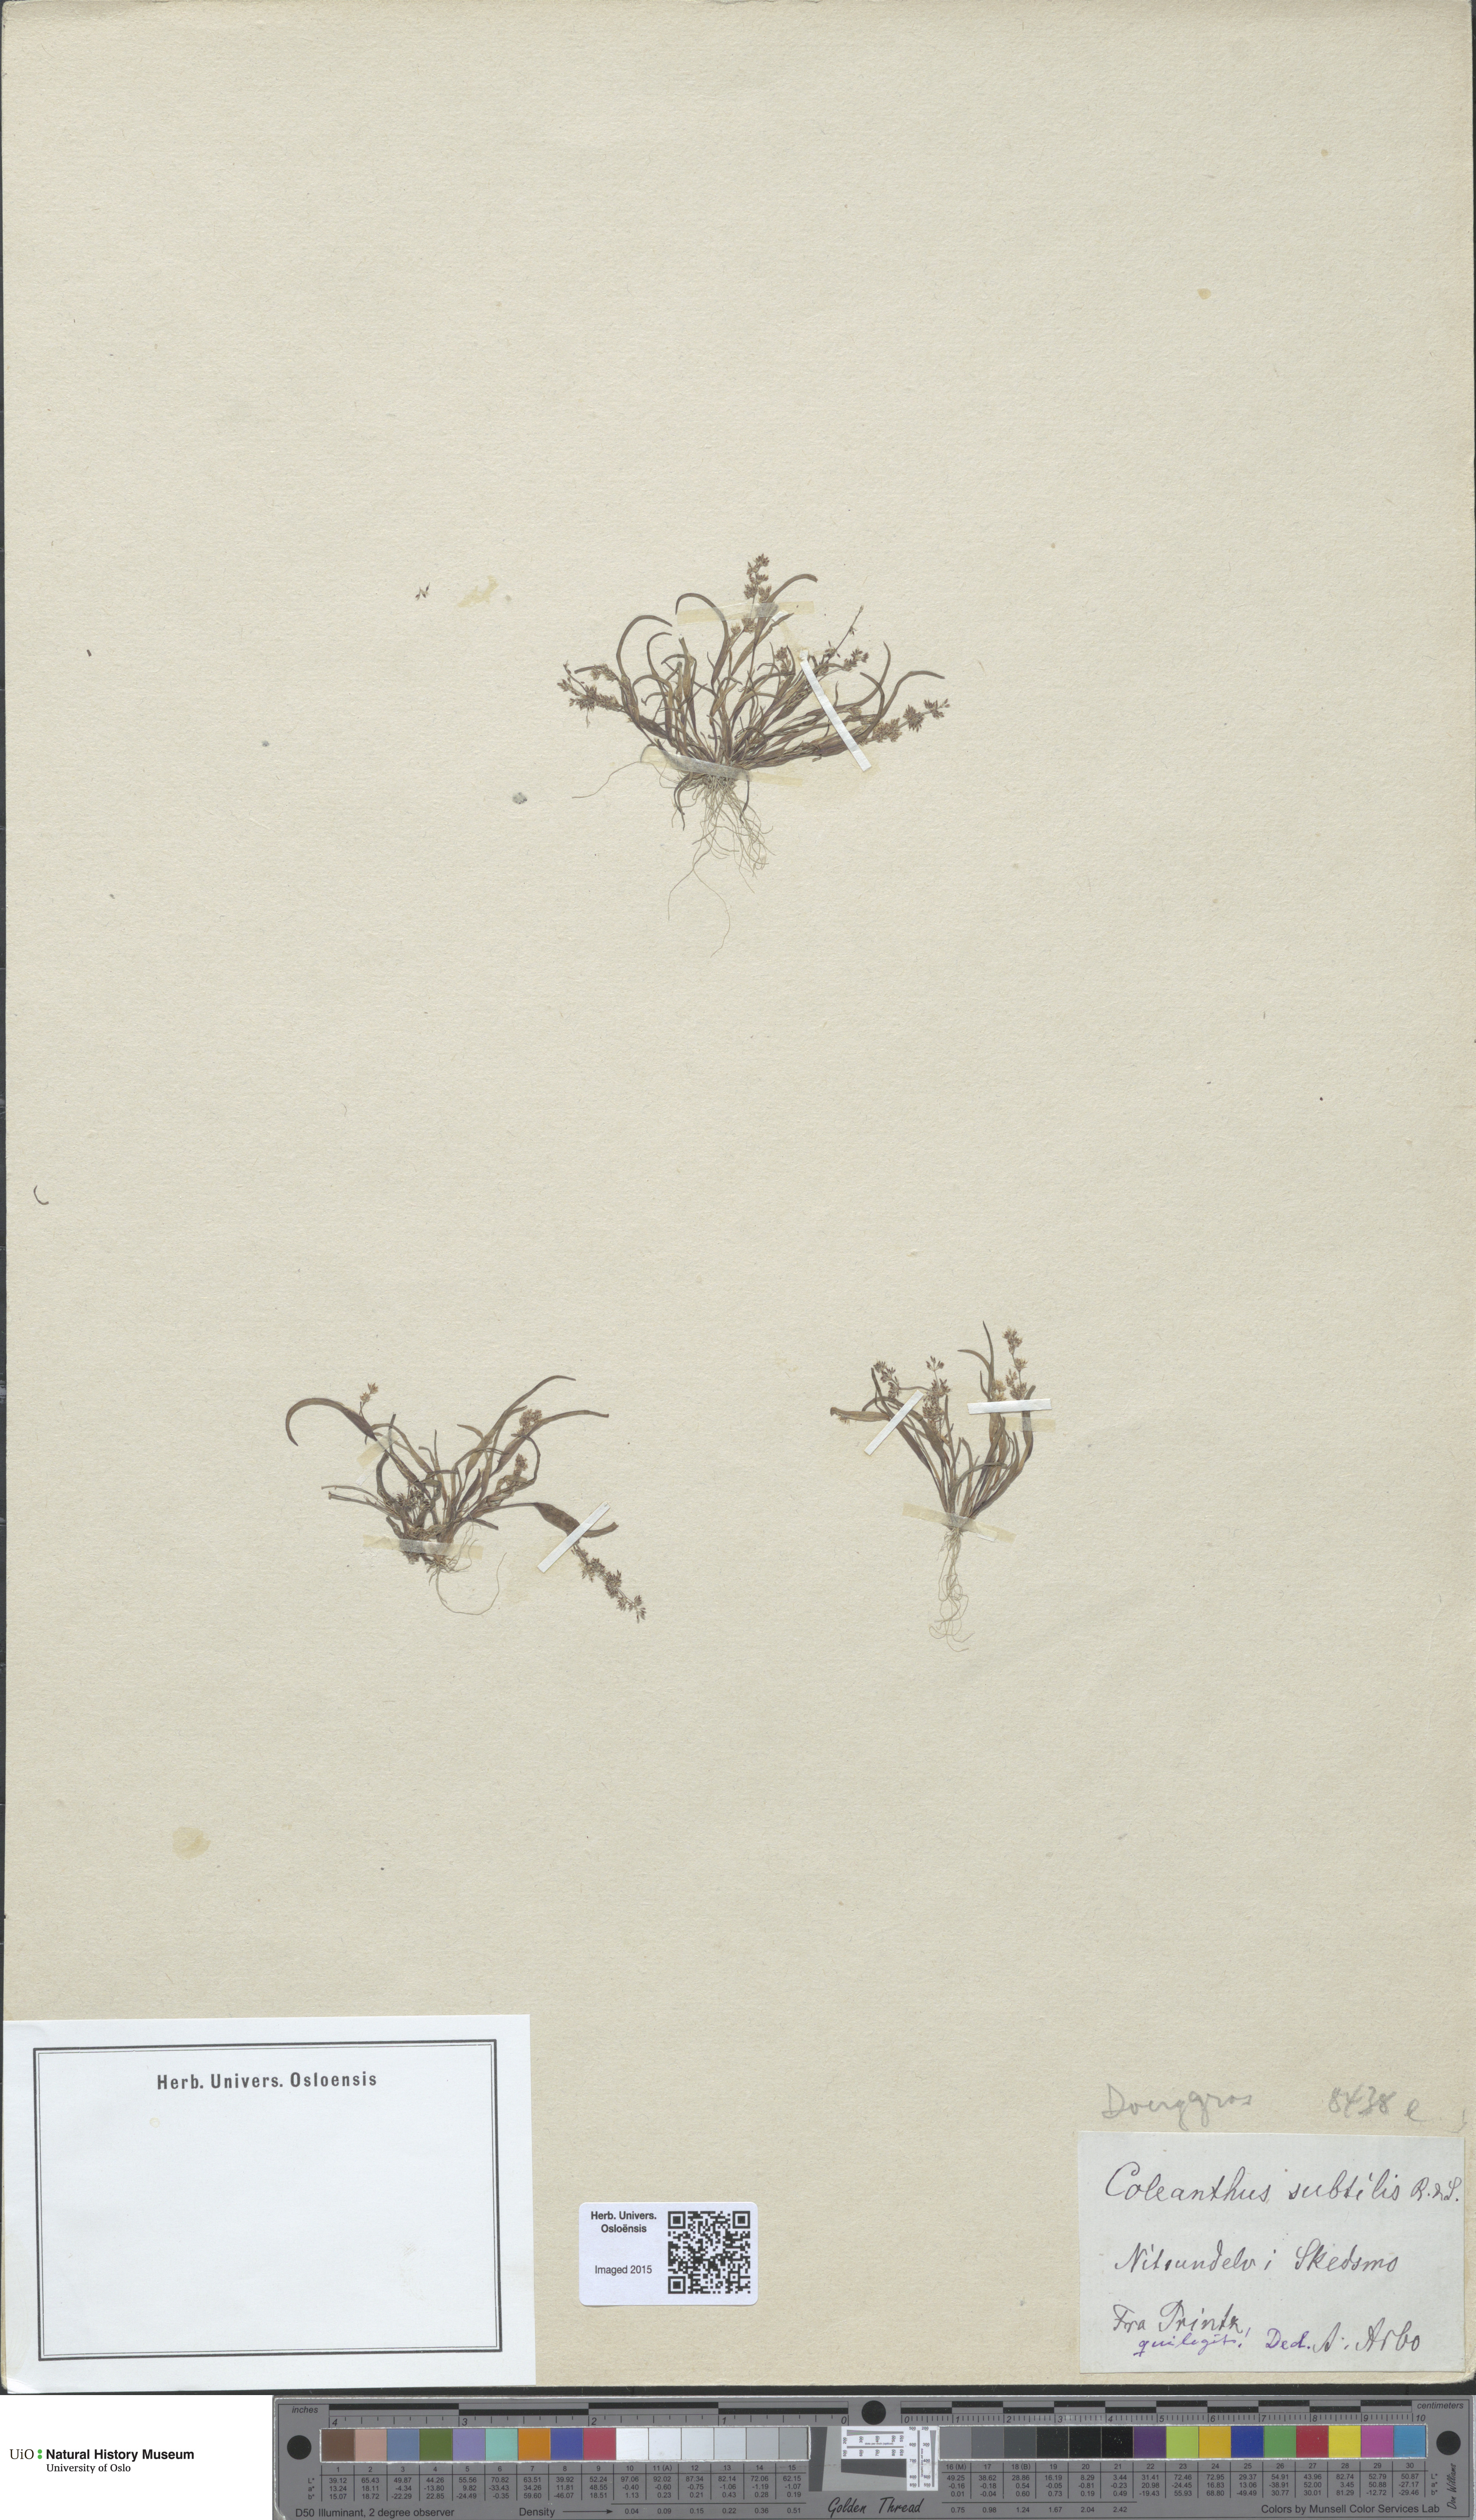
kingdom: Plantae
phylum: Tracheophyta
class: Liliopsida
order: Poales
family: Poaceae
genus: Coleanthus
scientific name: Coleanthus subtilis
